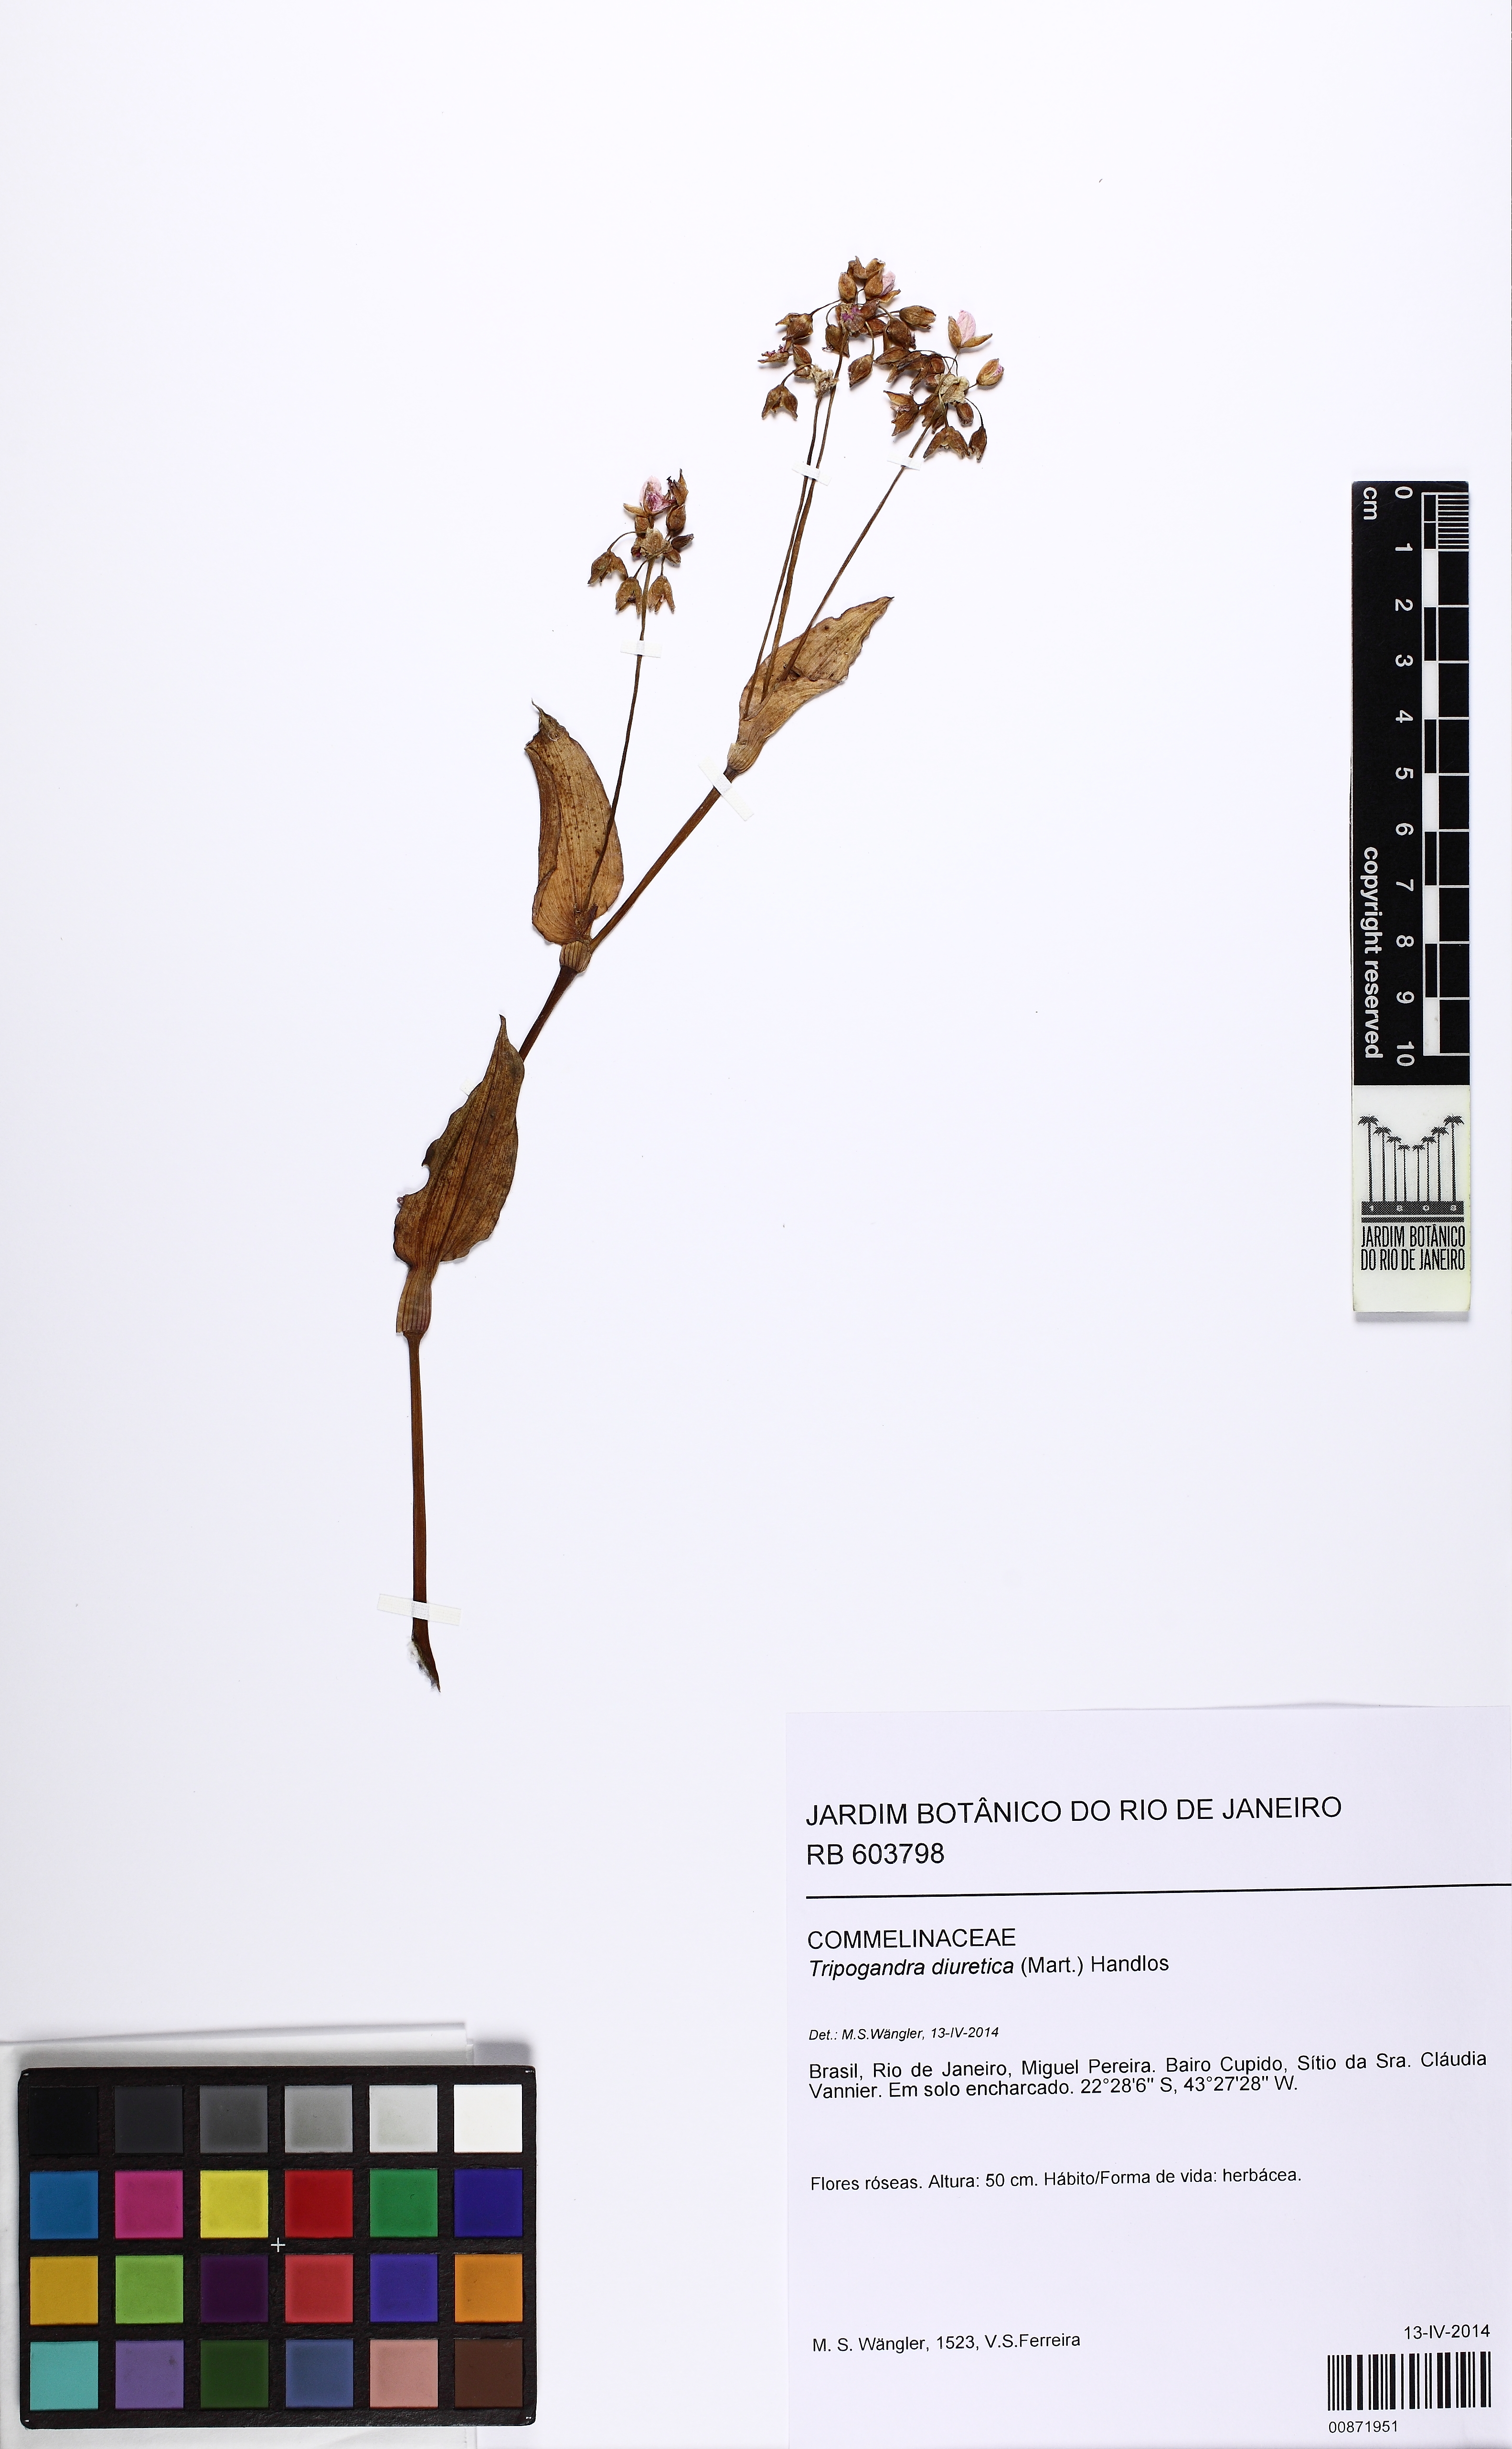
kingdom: Plantae
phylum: Tracheophyta
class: Liliopsida
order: Commelinales
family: Commelinaceae
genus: Callisia
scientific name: Callisia diuretica
